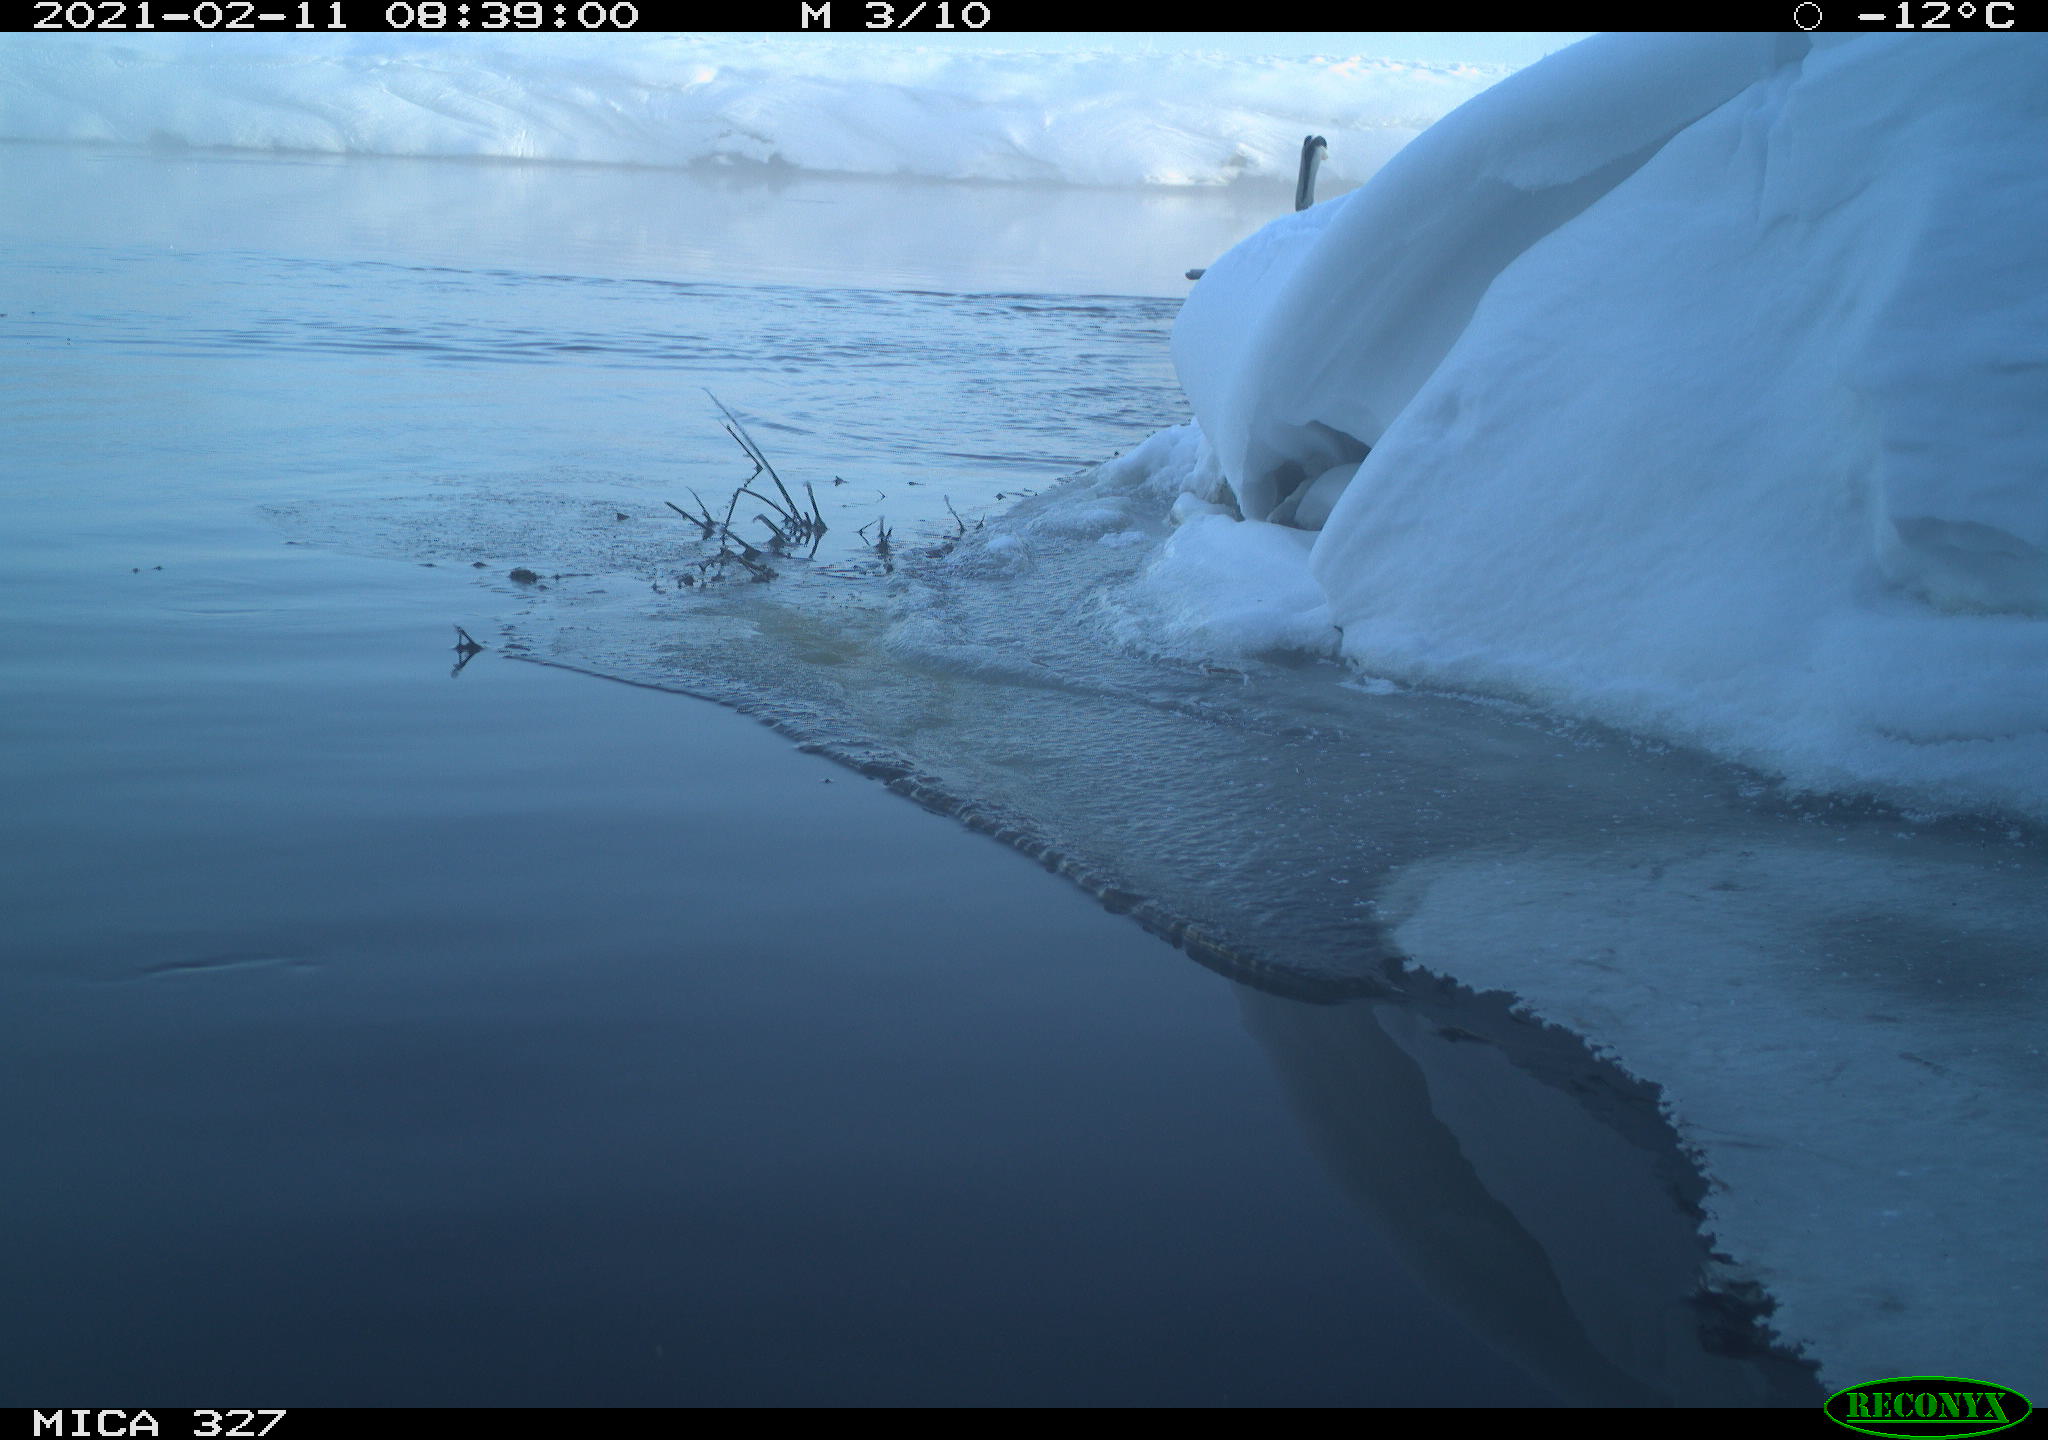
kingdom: Animalia
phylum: Chordata
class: Aves
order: Pelecaniformes
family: Ardeidae
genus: Ardea
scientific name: Ardea cinerea
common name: Grey heron
